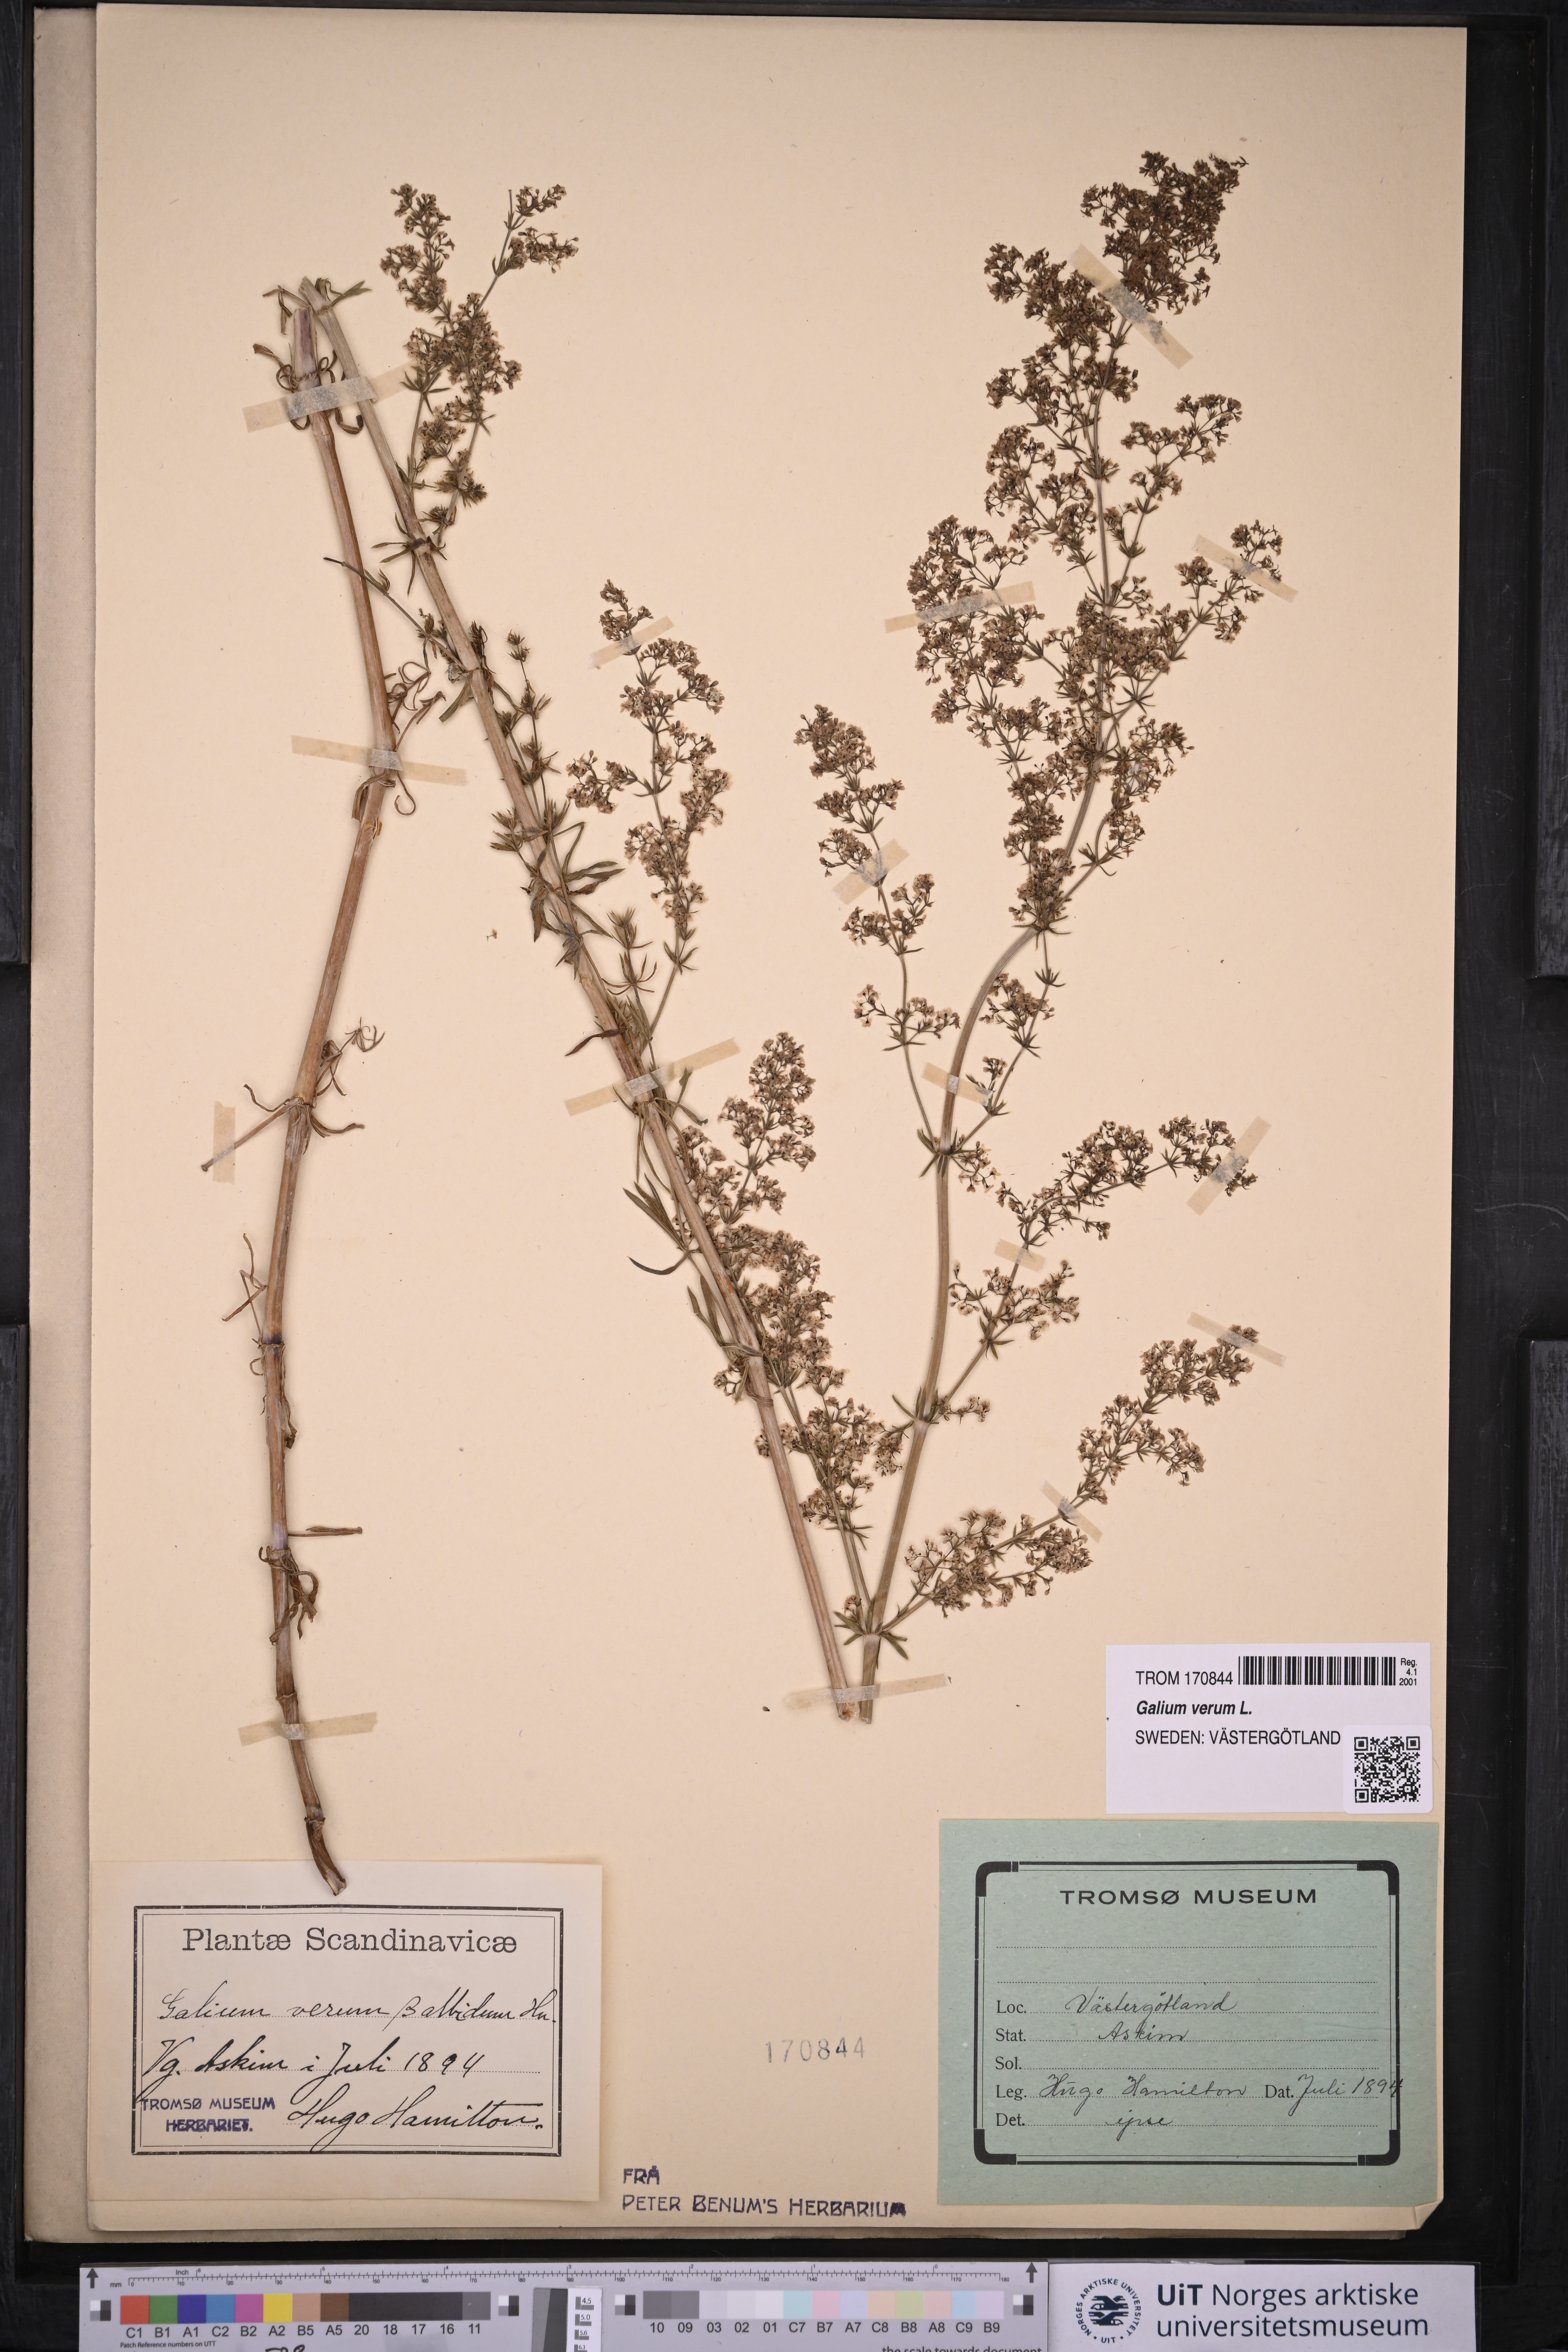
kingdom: Plantae
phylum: Tracheophyta
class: Magnoliopsida
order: Gentianales
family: Rubiaceae
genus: Galium
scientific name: Galium verum
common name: Lady's bedstraw
